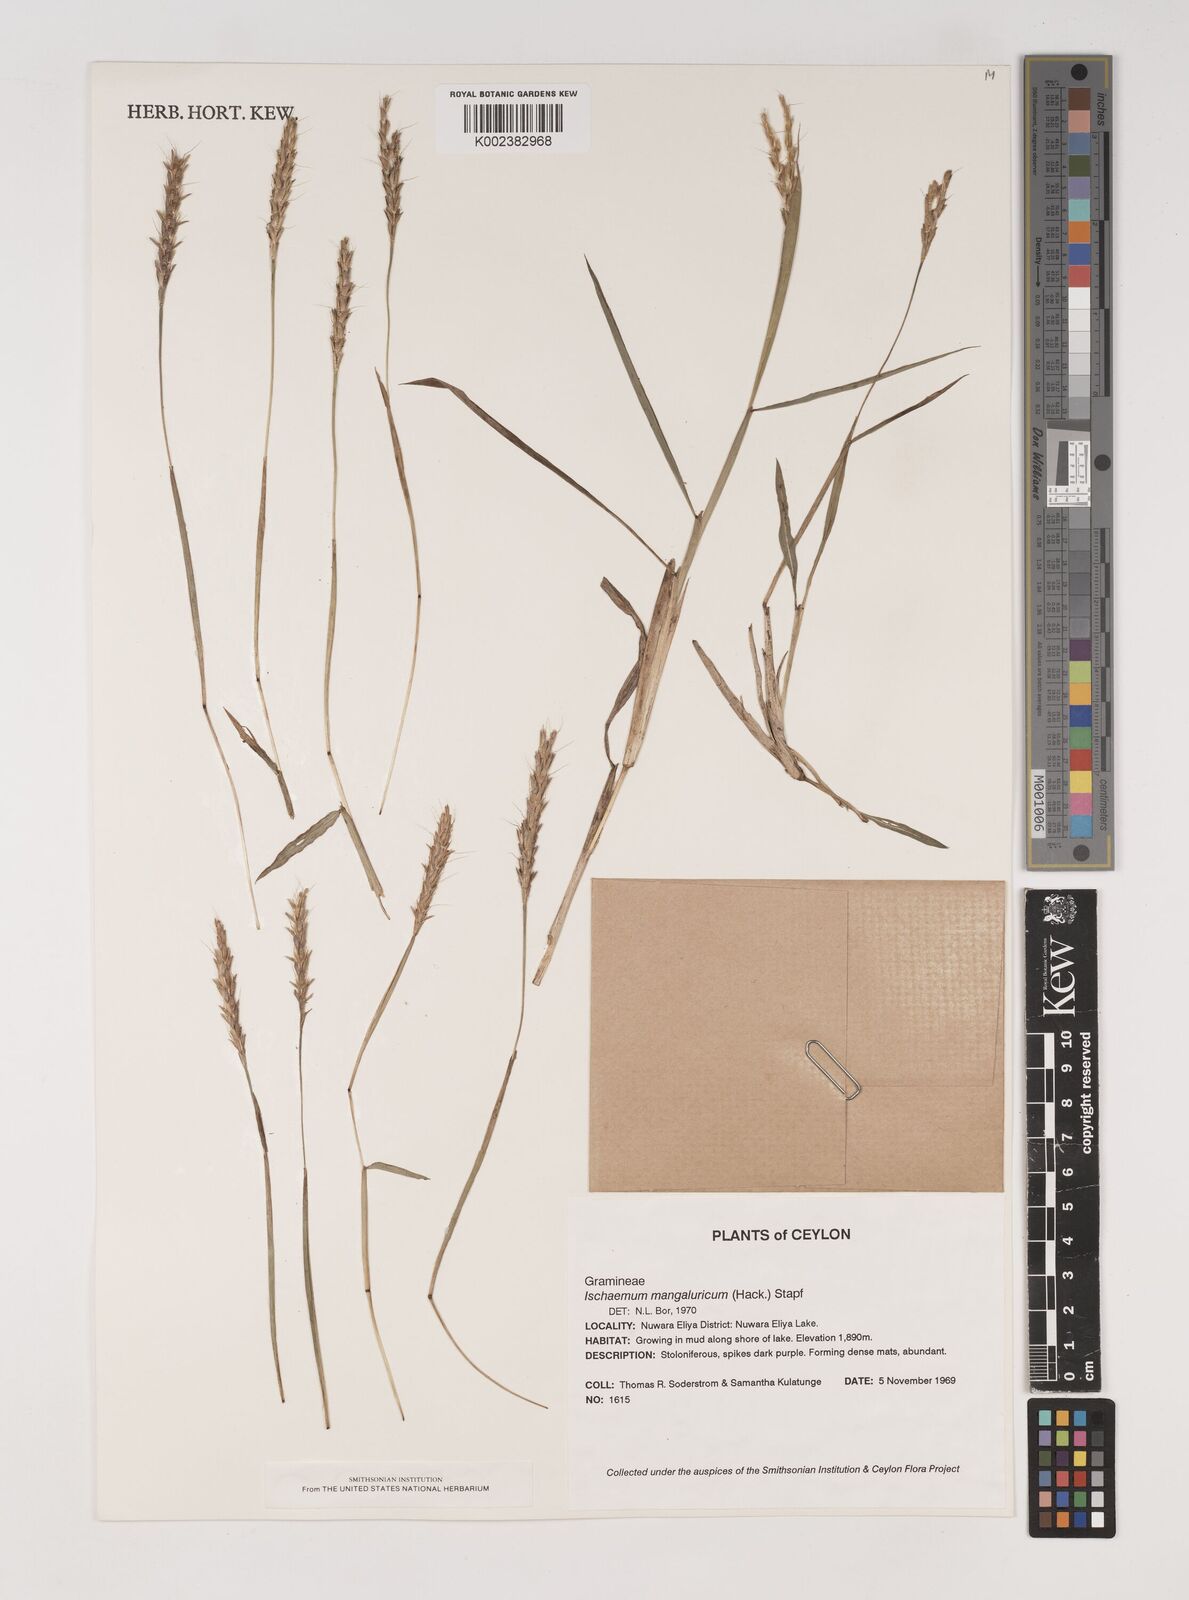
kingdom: Plantae
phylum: Tracheophyta
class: Liliopsida
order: Poales
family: Poaceae
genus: Ischaemum
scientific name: Ischaemum barbatum
